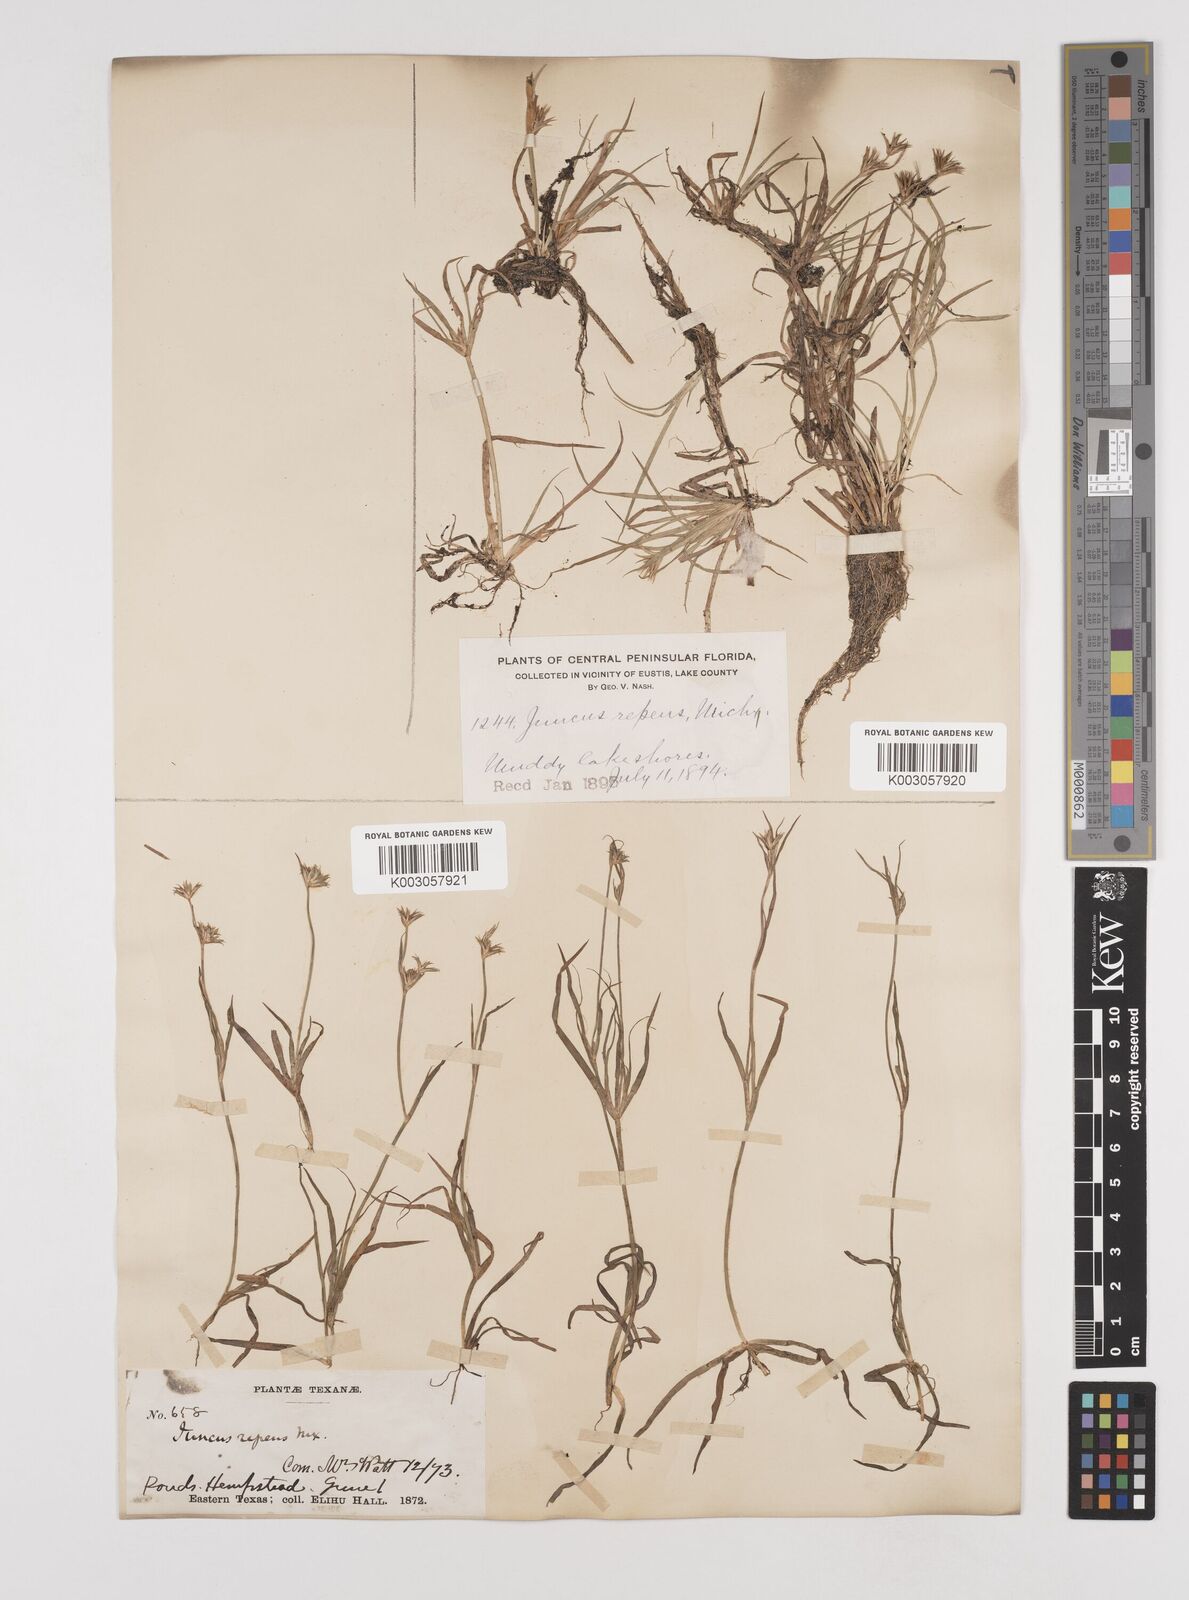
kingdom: Plantae
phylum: Tracheophyta
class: Liliopsida
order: Poales
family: Juncaceae
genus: Juncus
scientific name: Juncus repens
